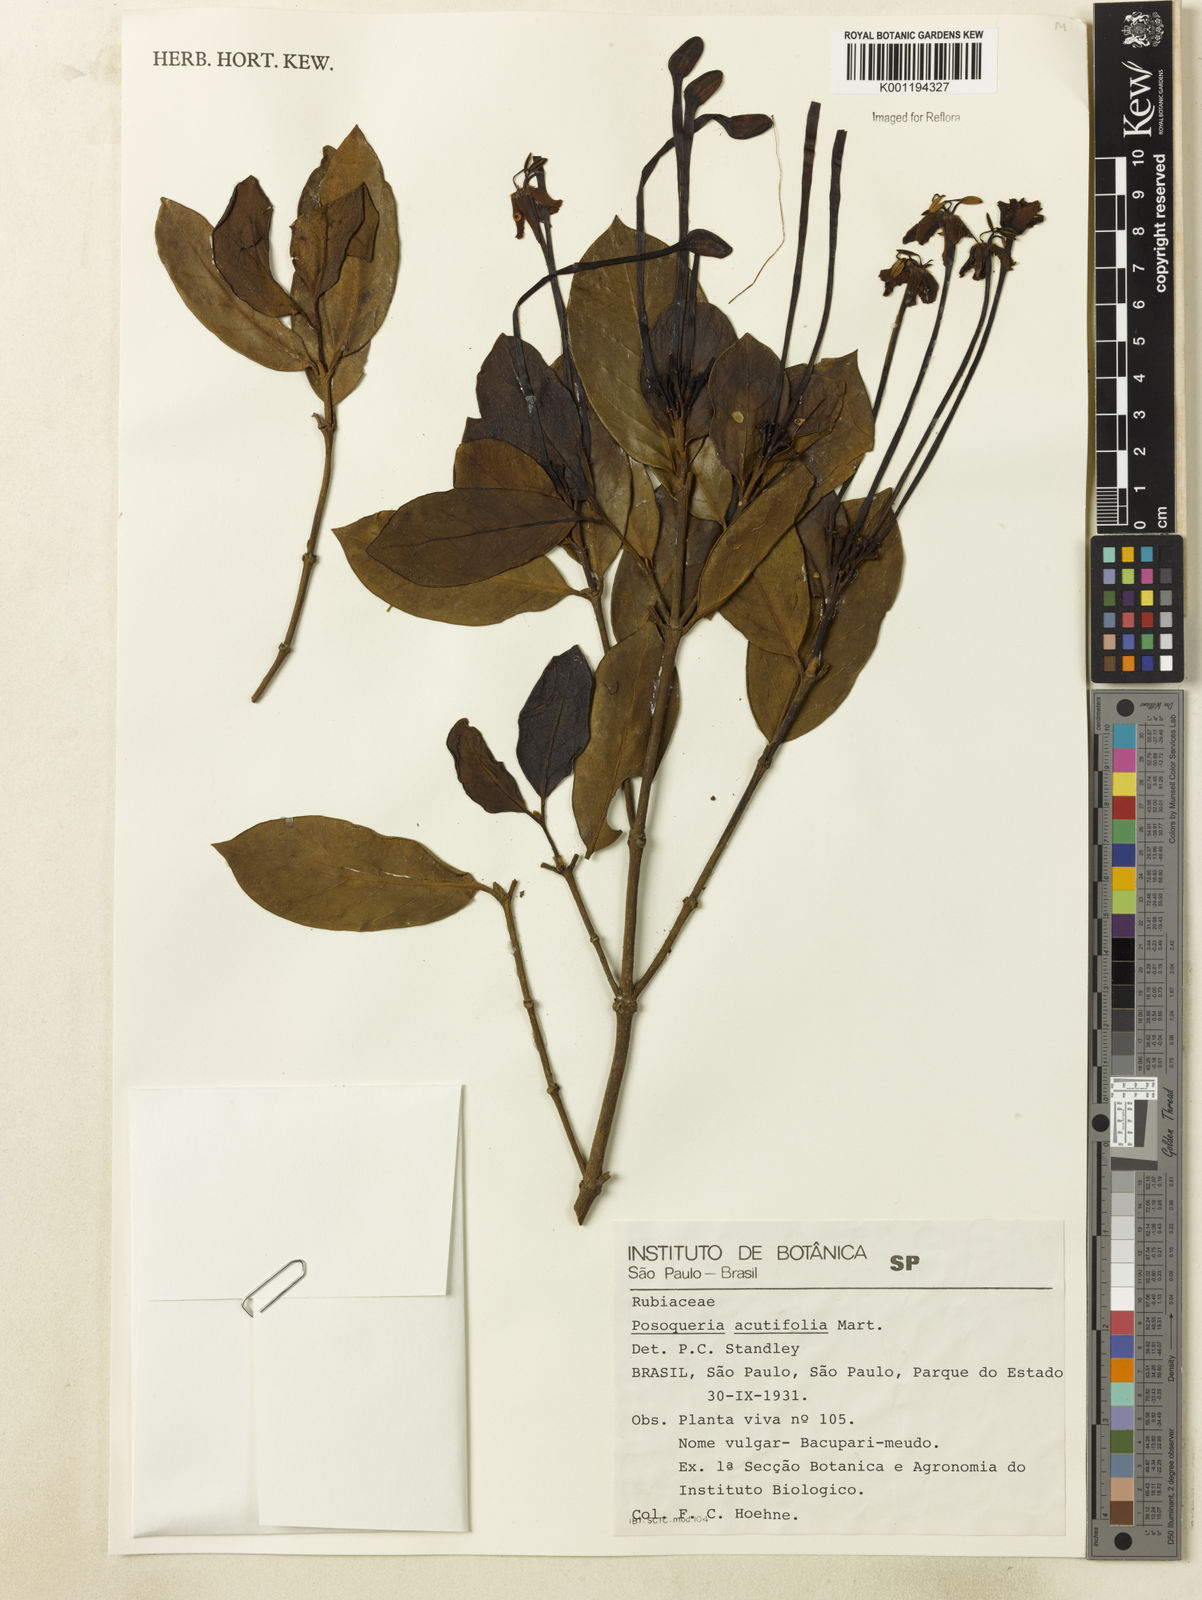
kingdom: Plantae
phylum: Tracheophyta
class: Magnoliopsida
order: Gentianales
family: Rubiaceae
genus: Posoqueria
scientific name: Posoqueria latifolia
